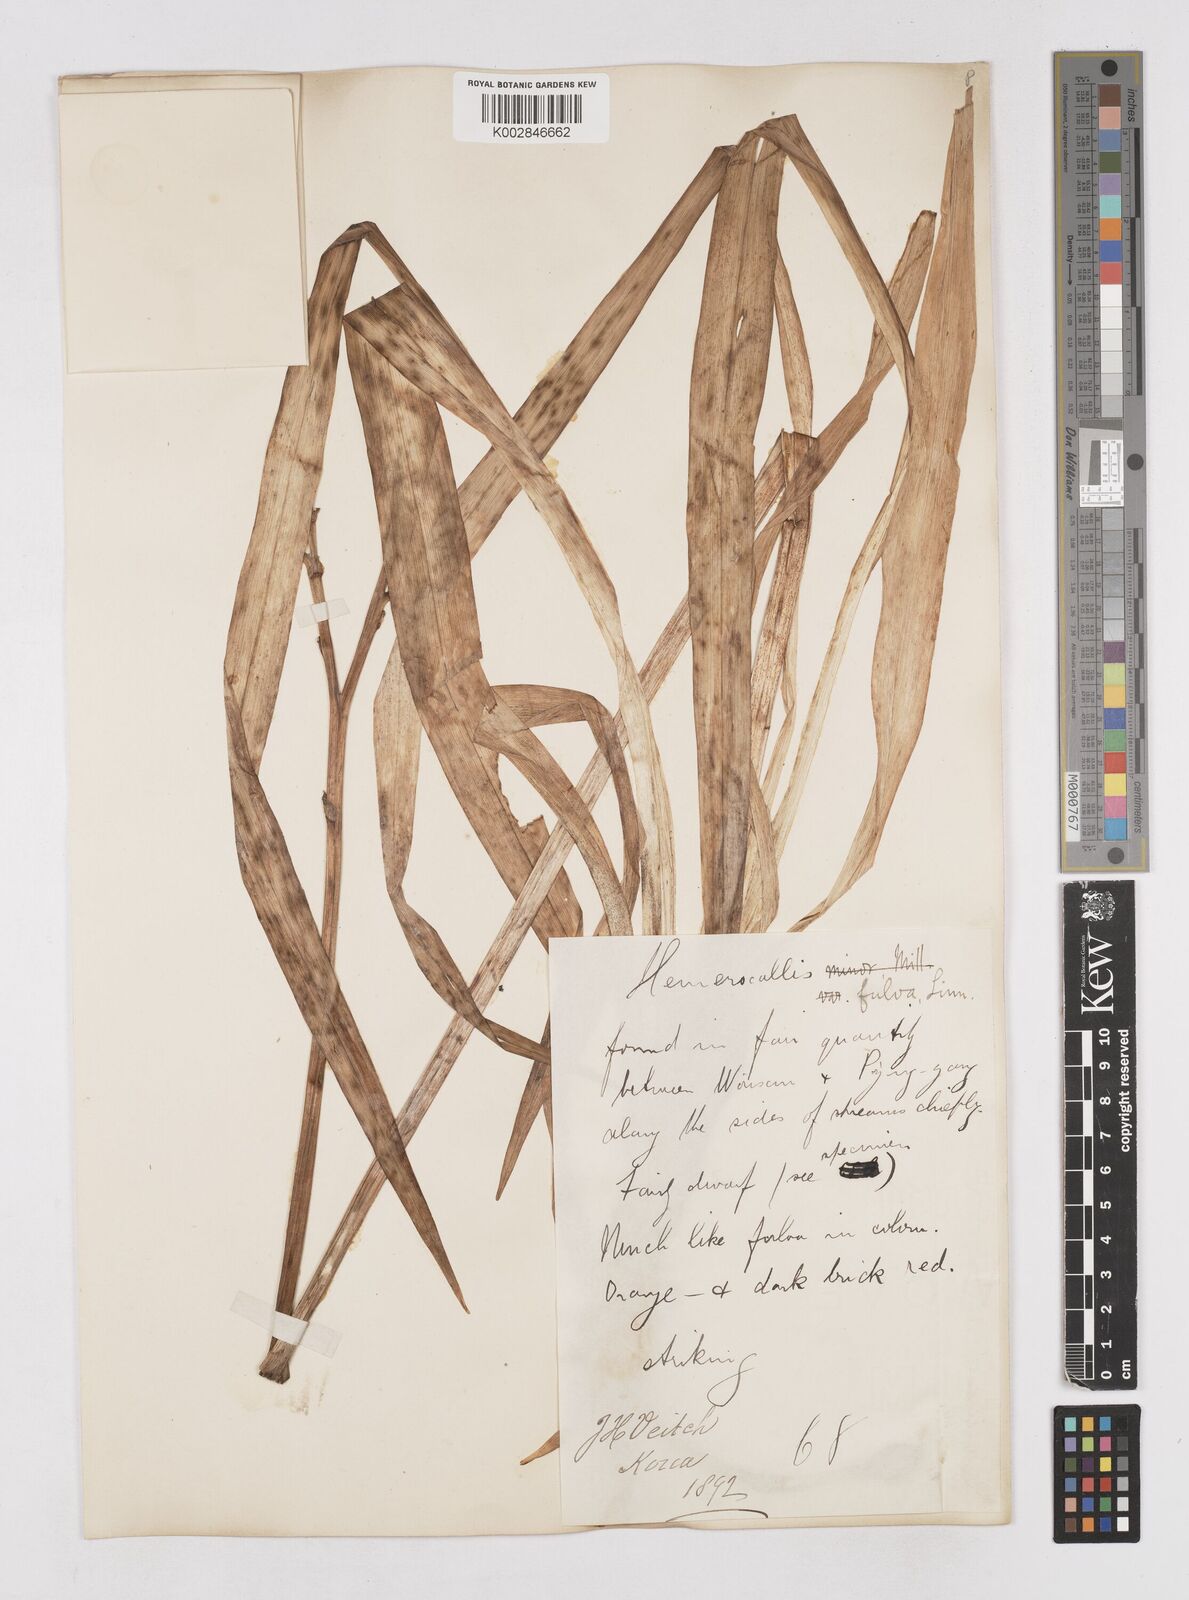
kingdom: Plantae
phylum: Tracheophyta
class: Liliopsida
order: Asparagales
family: Asphodelaceae
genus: Hemerocallis
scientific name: Hemerocallis fulva
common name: Orange day-lily
